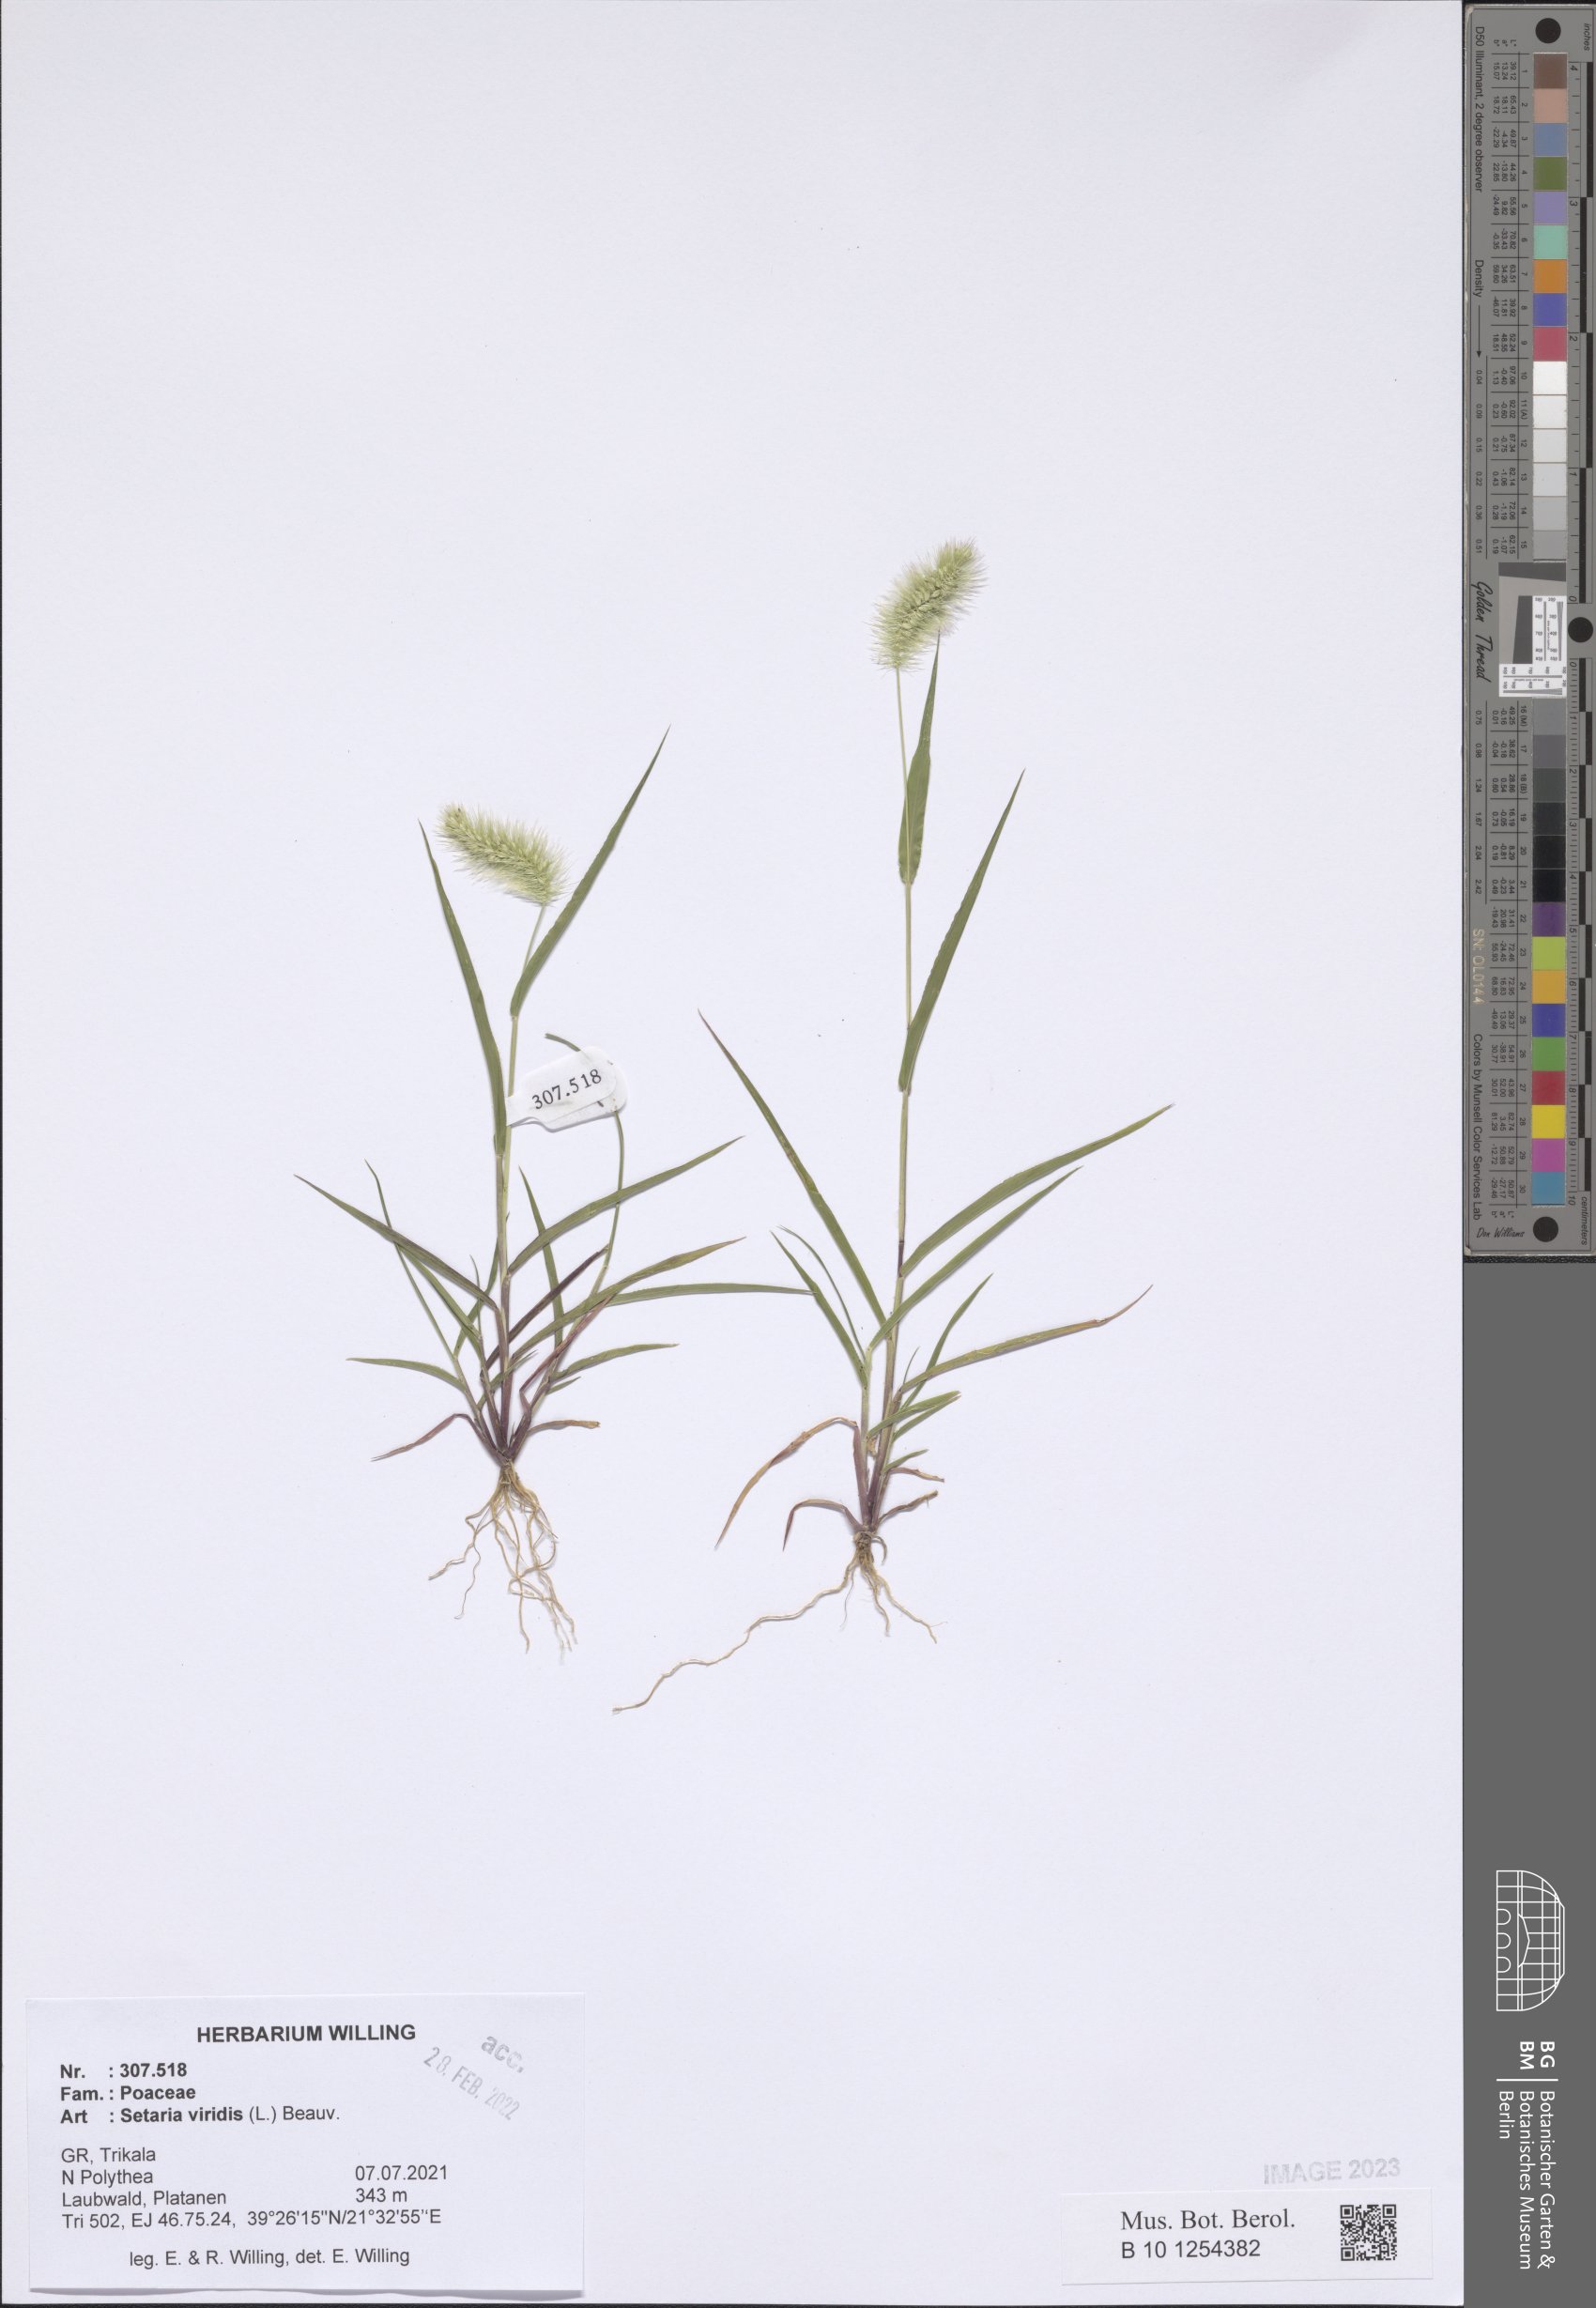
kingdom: Plantae
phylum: Tracheophyta
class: Liliopsida
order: Poales
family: Poaceae
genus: Setaria
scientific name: Setaria viridis
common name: Green bristlegrass
